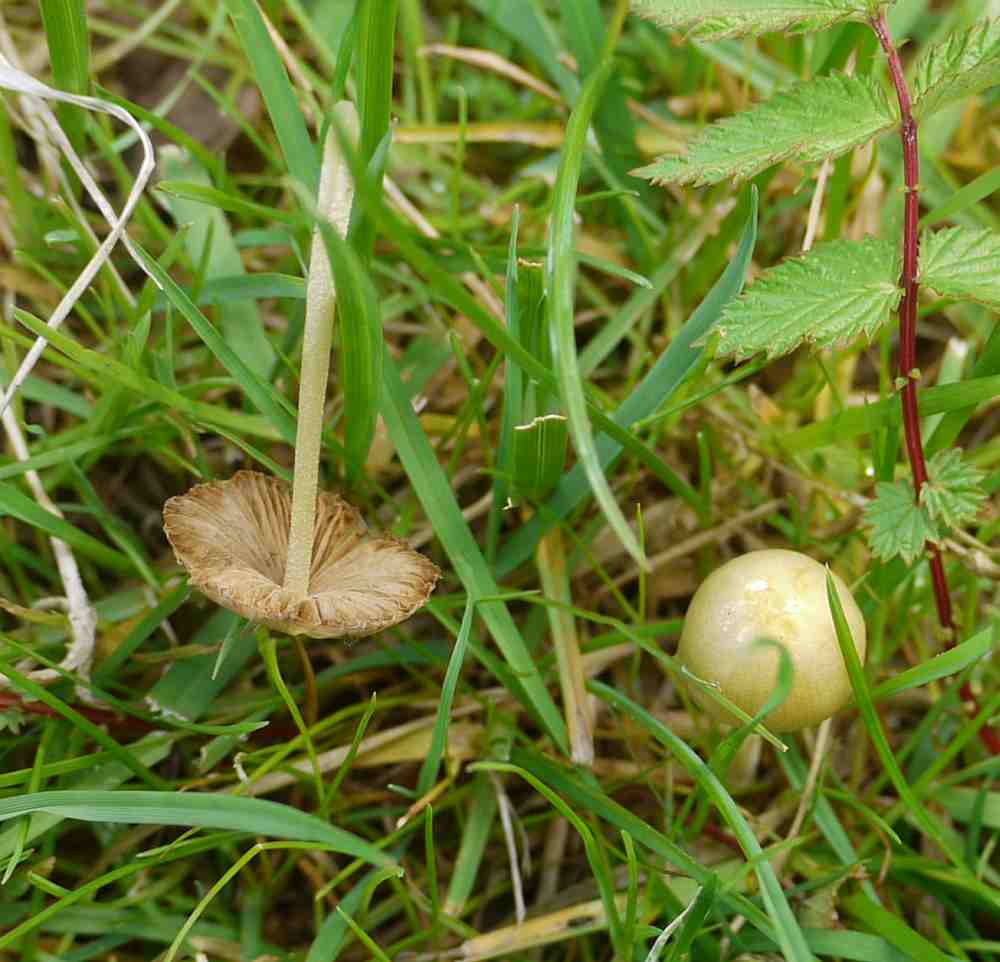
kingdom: Fungi
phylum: Basidiomycota
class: Agaricomycetes
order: Agaricales
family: Bolbitiaceae
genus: Bolbitius
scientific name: Bolbitius titubans
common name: almindelig gulhat
